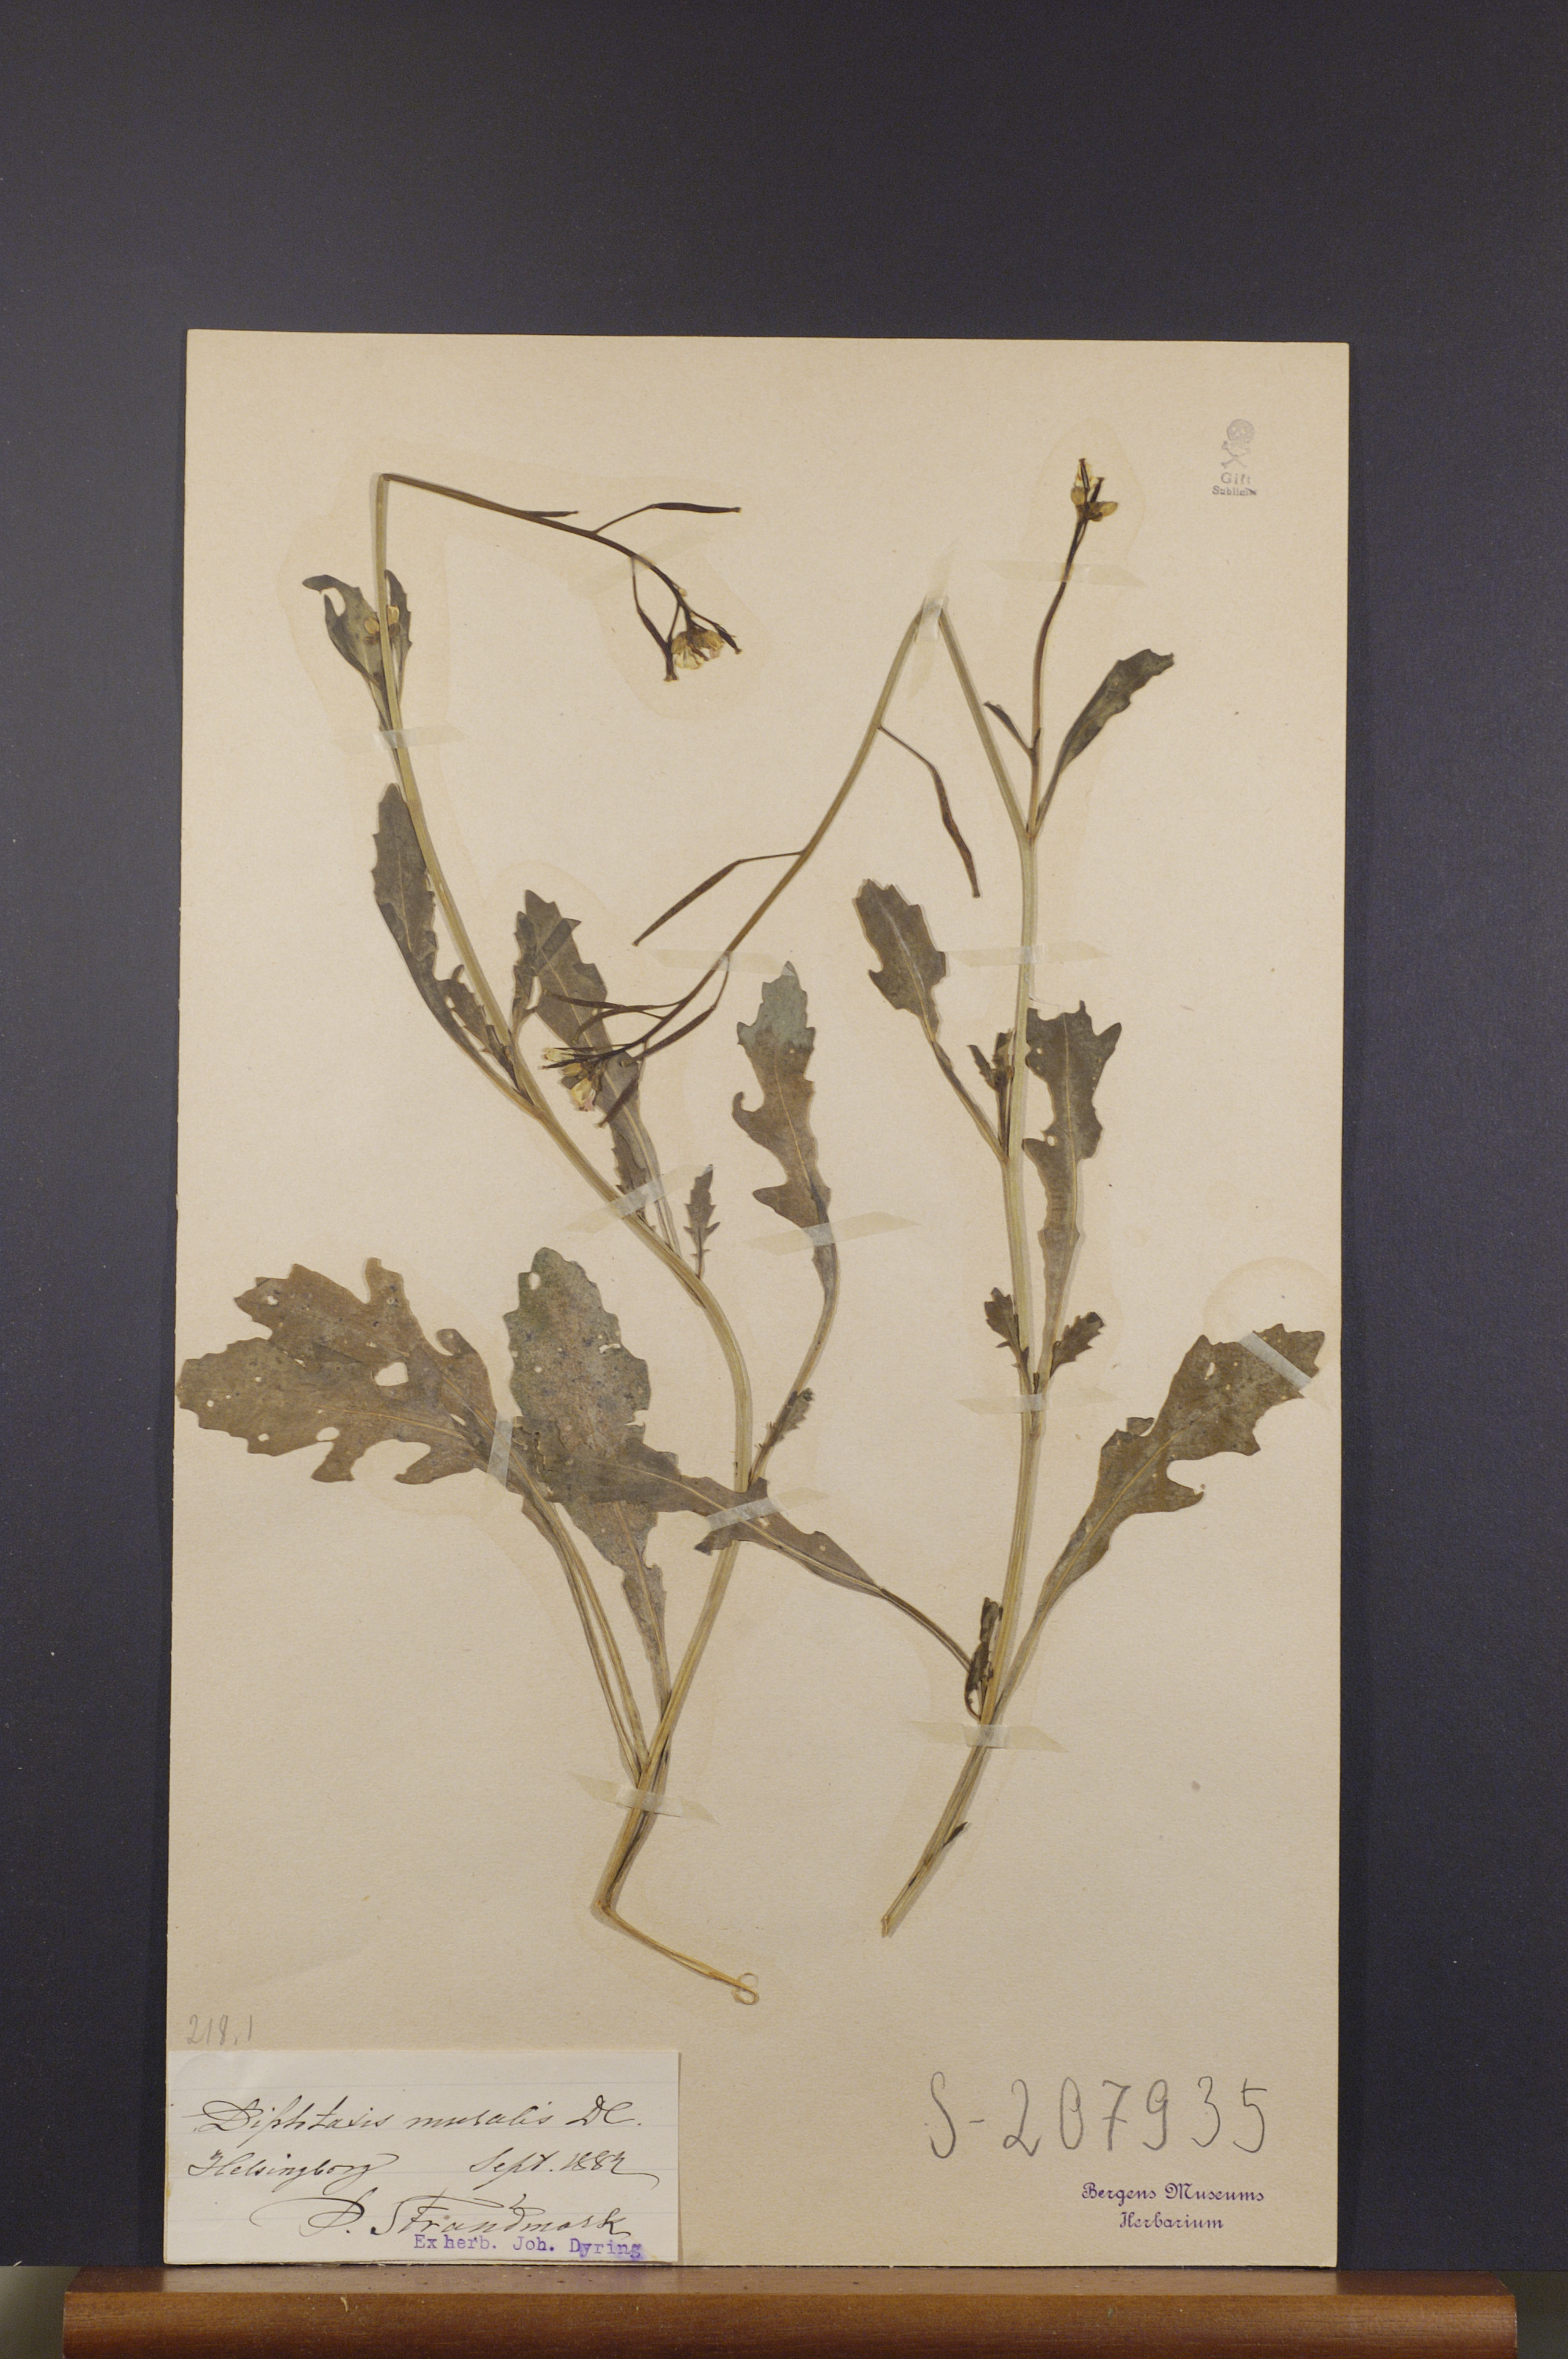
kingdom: Plantae
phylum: Tracheophyta
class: Magnoliopsida
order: Brassicales
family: Brassicaceae
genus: Diplotaxis
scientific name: Diplotaxis muralis
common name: Annual wall-rocket
